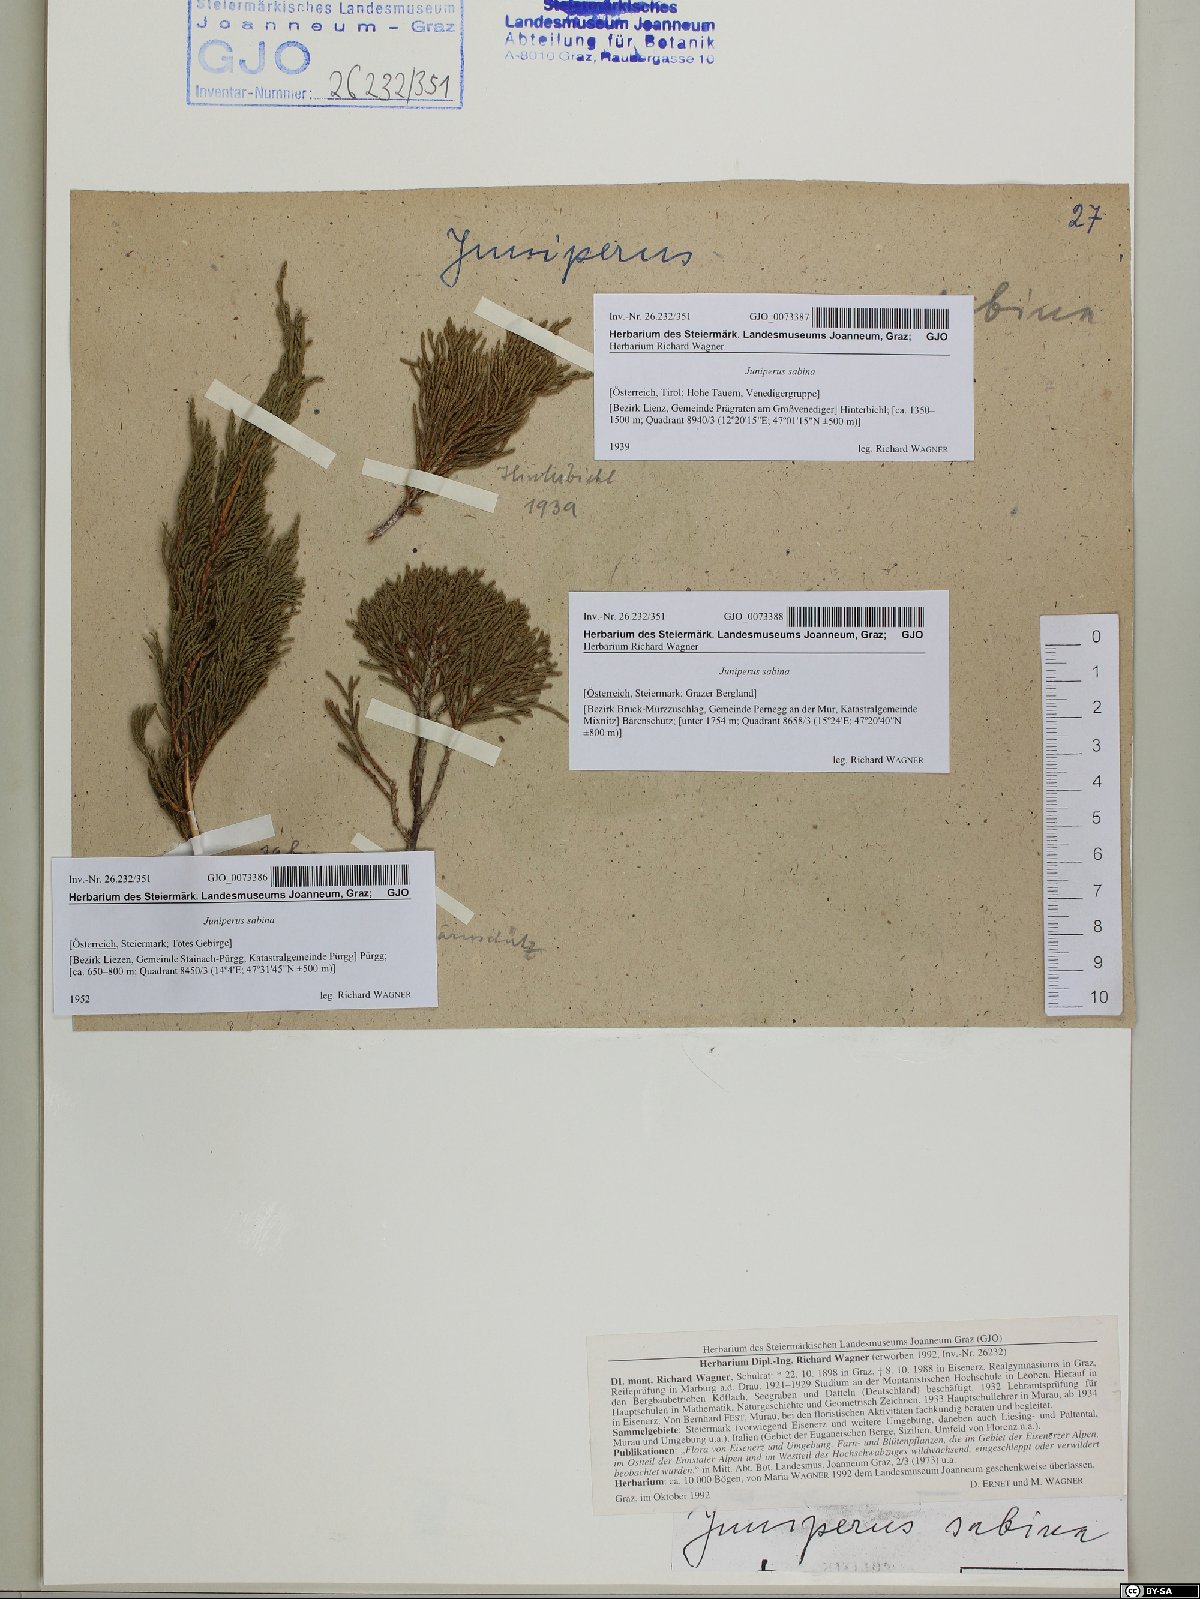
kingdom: Plantae
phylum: Tracheophyta
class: Pinopsida
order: Pinales
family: Cupressaceae
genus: Juniperus
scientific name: Juniperus sabina
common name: Savin
